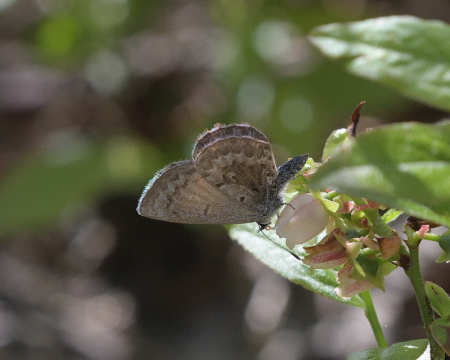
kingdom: Animalia
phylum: Arthropoda
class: Insecta
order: Lepidoptera
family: Lycaenidae
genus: Celastrina
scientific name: Celastrina lucia
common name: Northern Spring Azure
